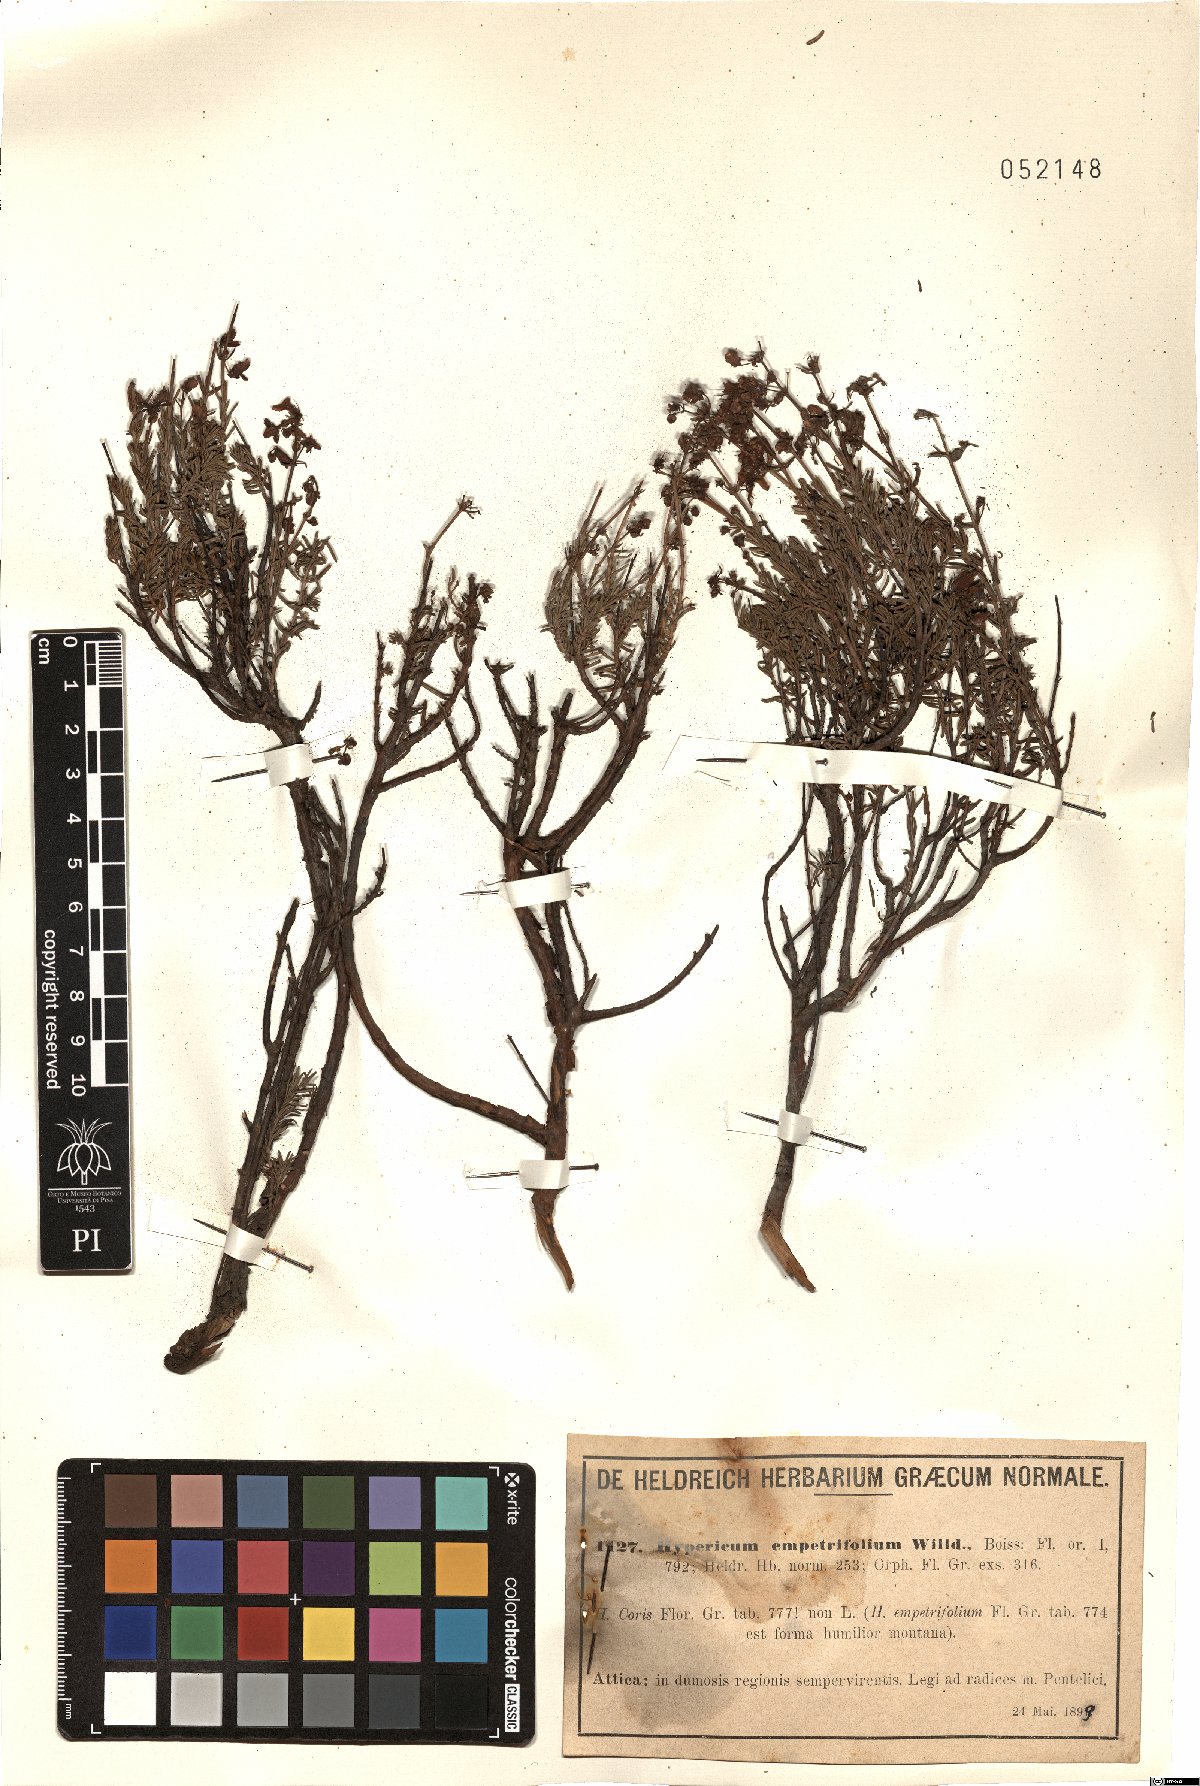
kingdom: Plantae
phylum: Tracheophyta
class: Magnoliopsida
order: Malpighiales
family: Hypericaceae
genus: Hypericum
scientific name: Hypericum empetrifolium
